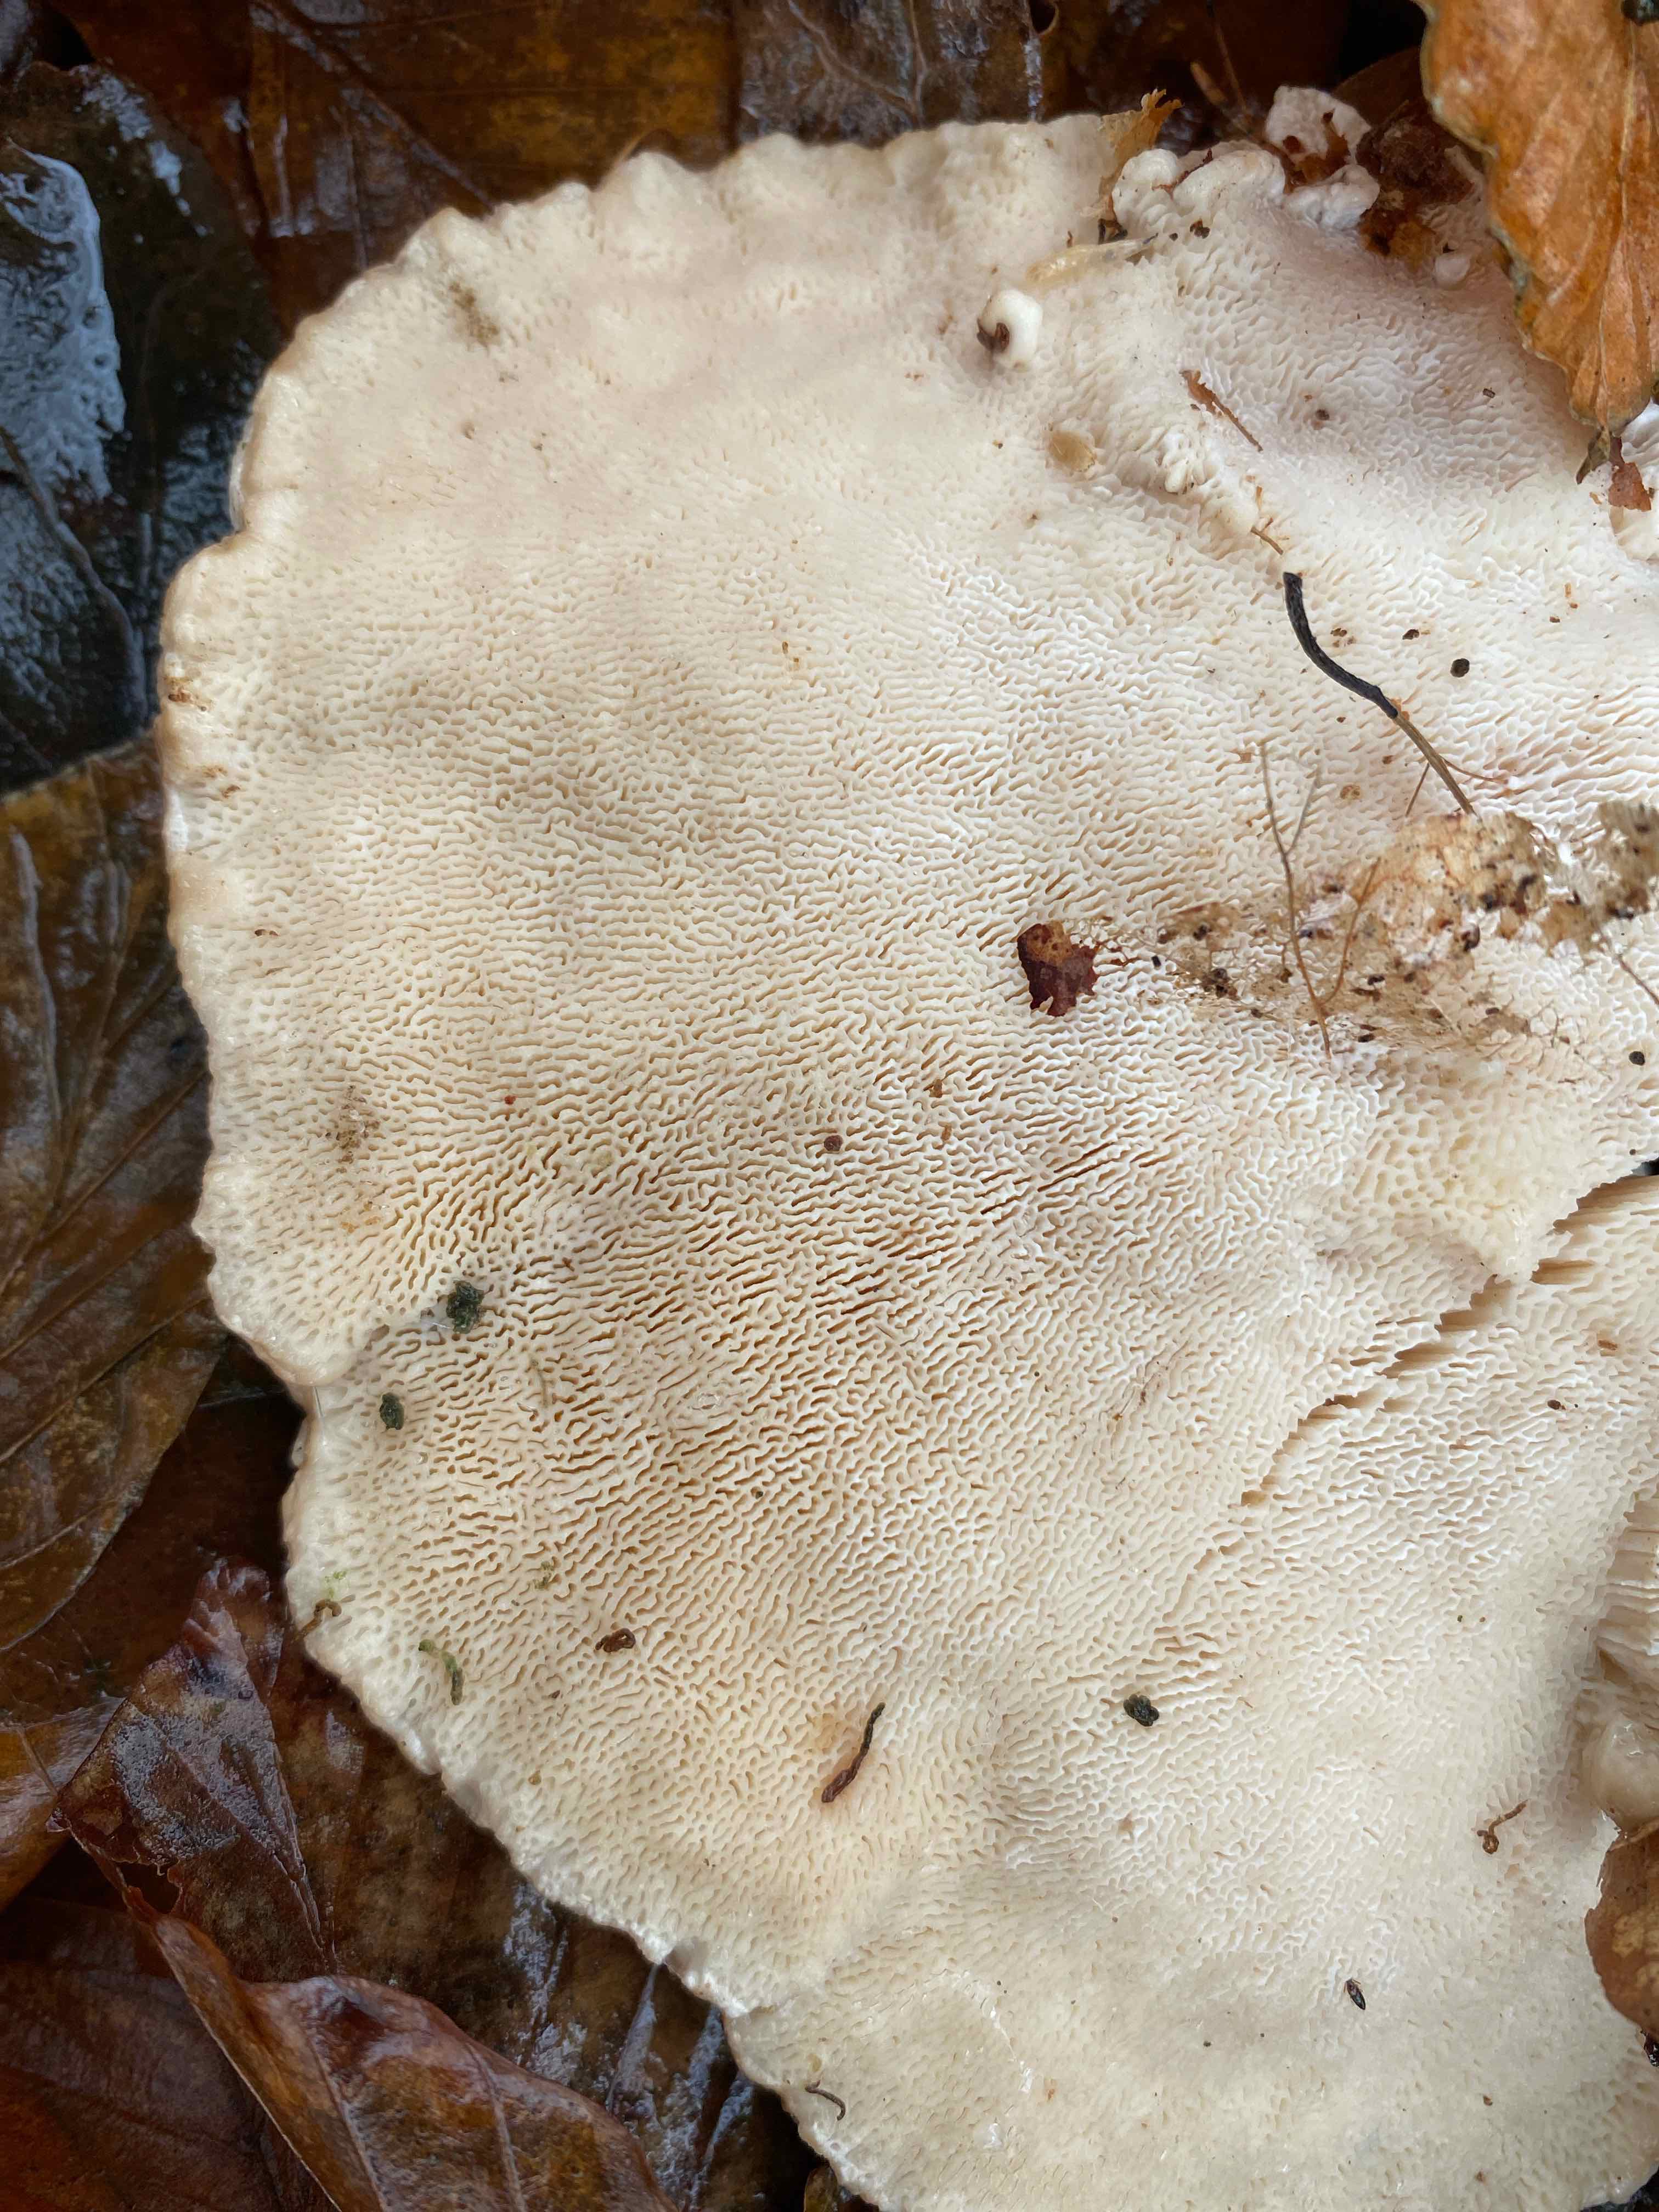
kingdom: Fungi
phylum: Basidiomycota
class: Agaricomycetes
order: Polyporales
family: Polyporaceae
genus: Trametes
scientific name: Trametes gibbosa
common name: puklet læderporesvamp
